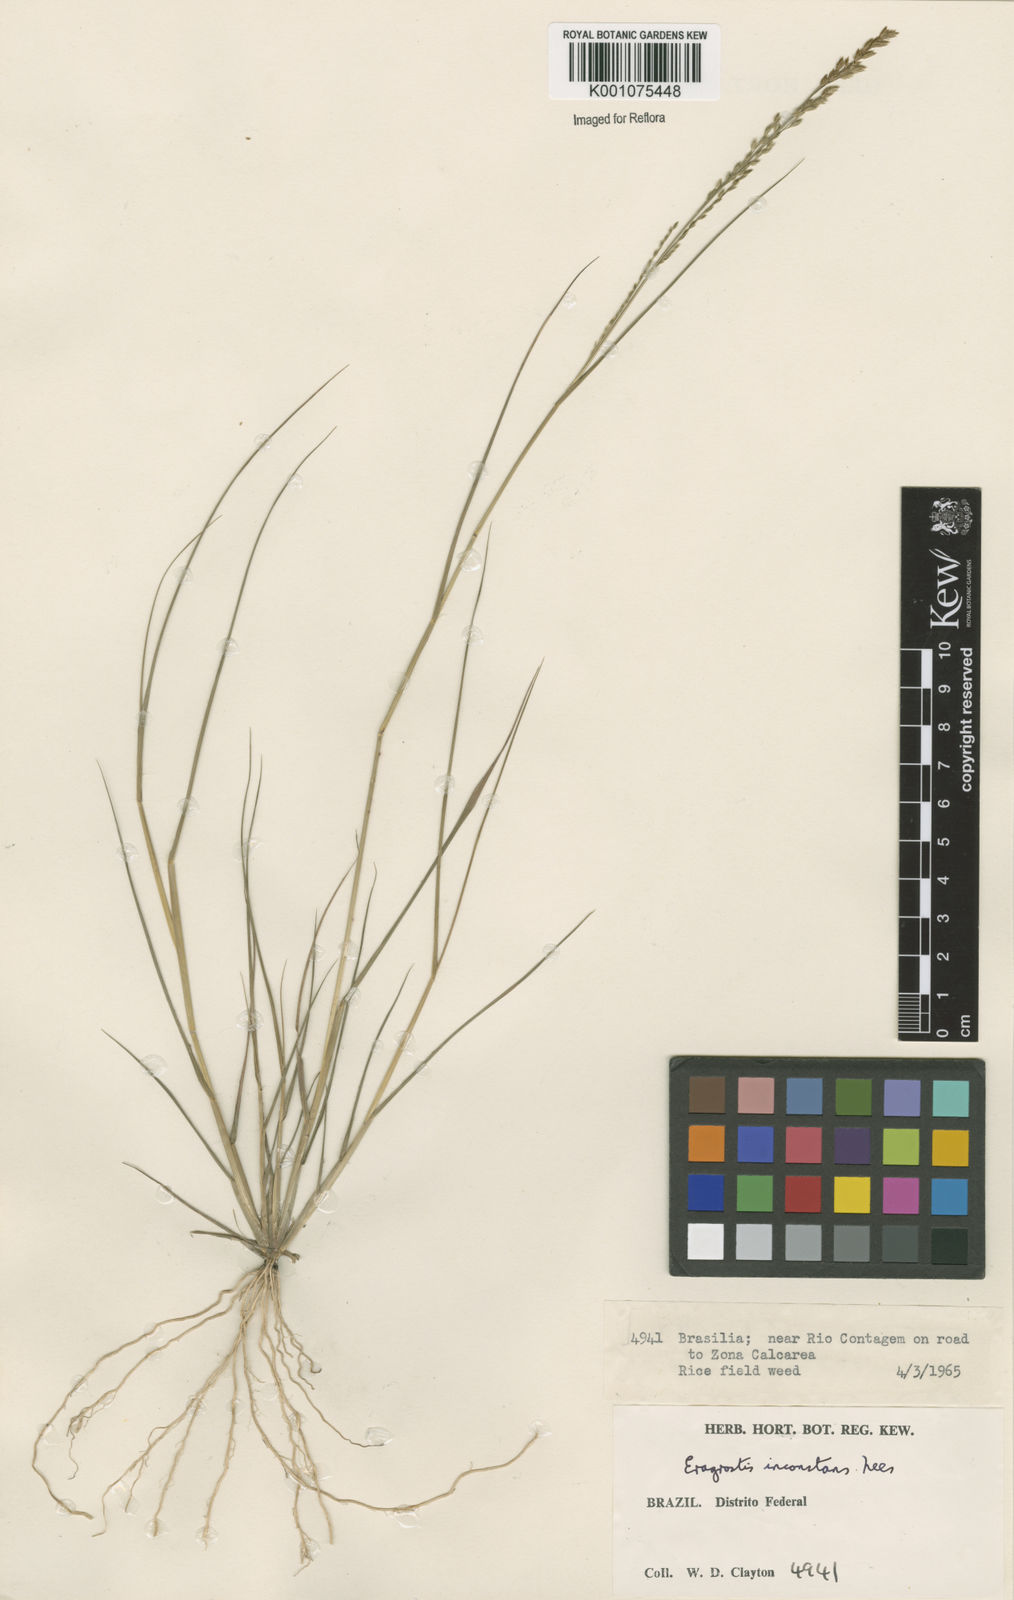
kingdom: Plantae
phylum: Tracheophyta
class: Liliopsida
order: Poales
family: Poaceae
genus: Eragrostis
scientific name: Eragrostis rufescens
